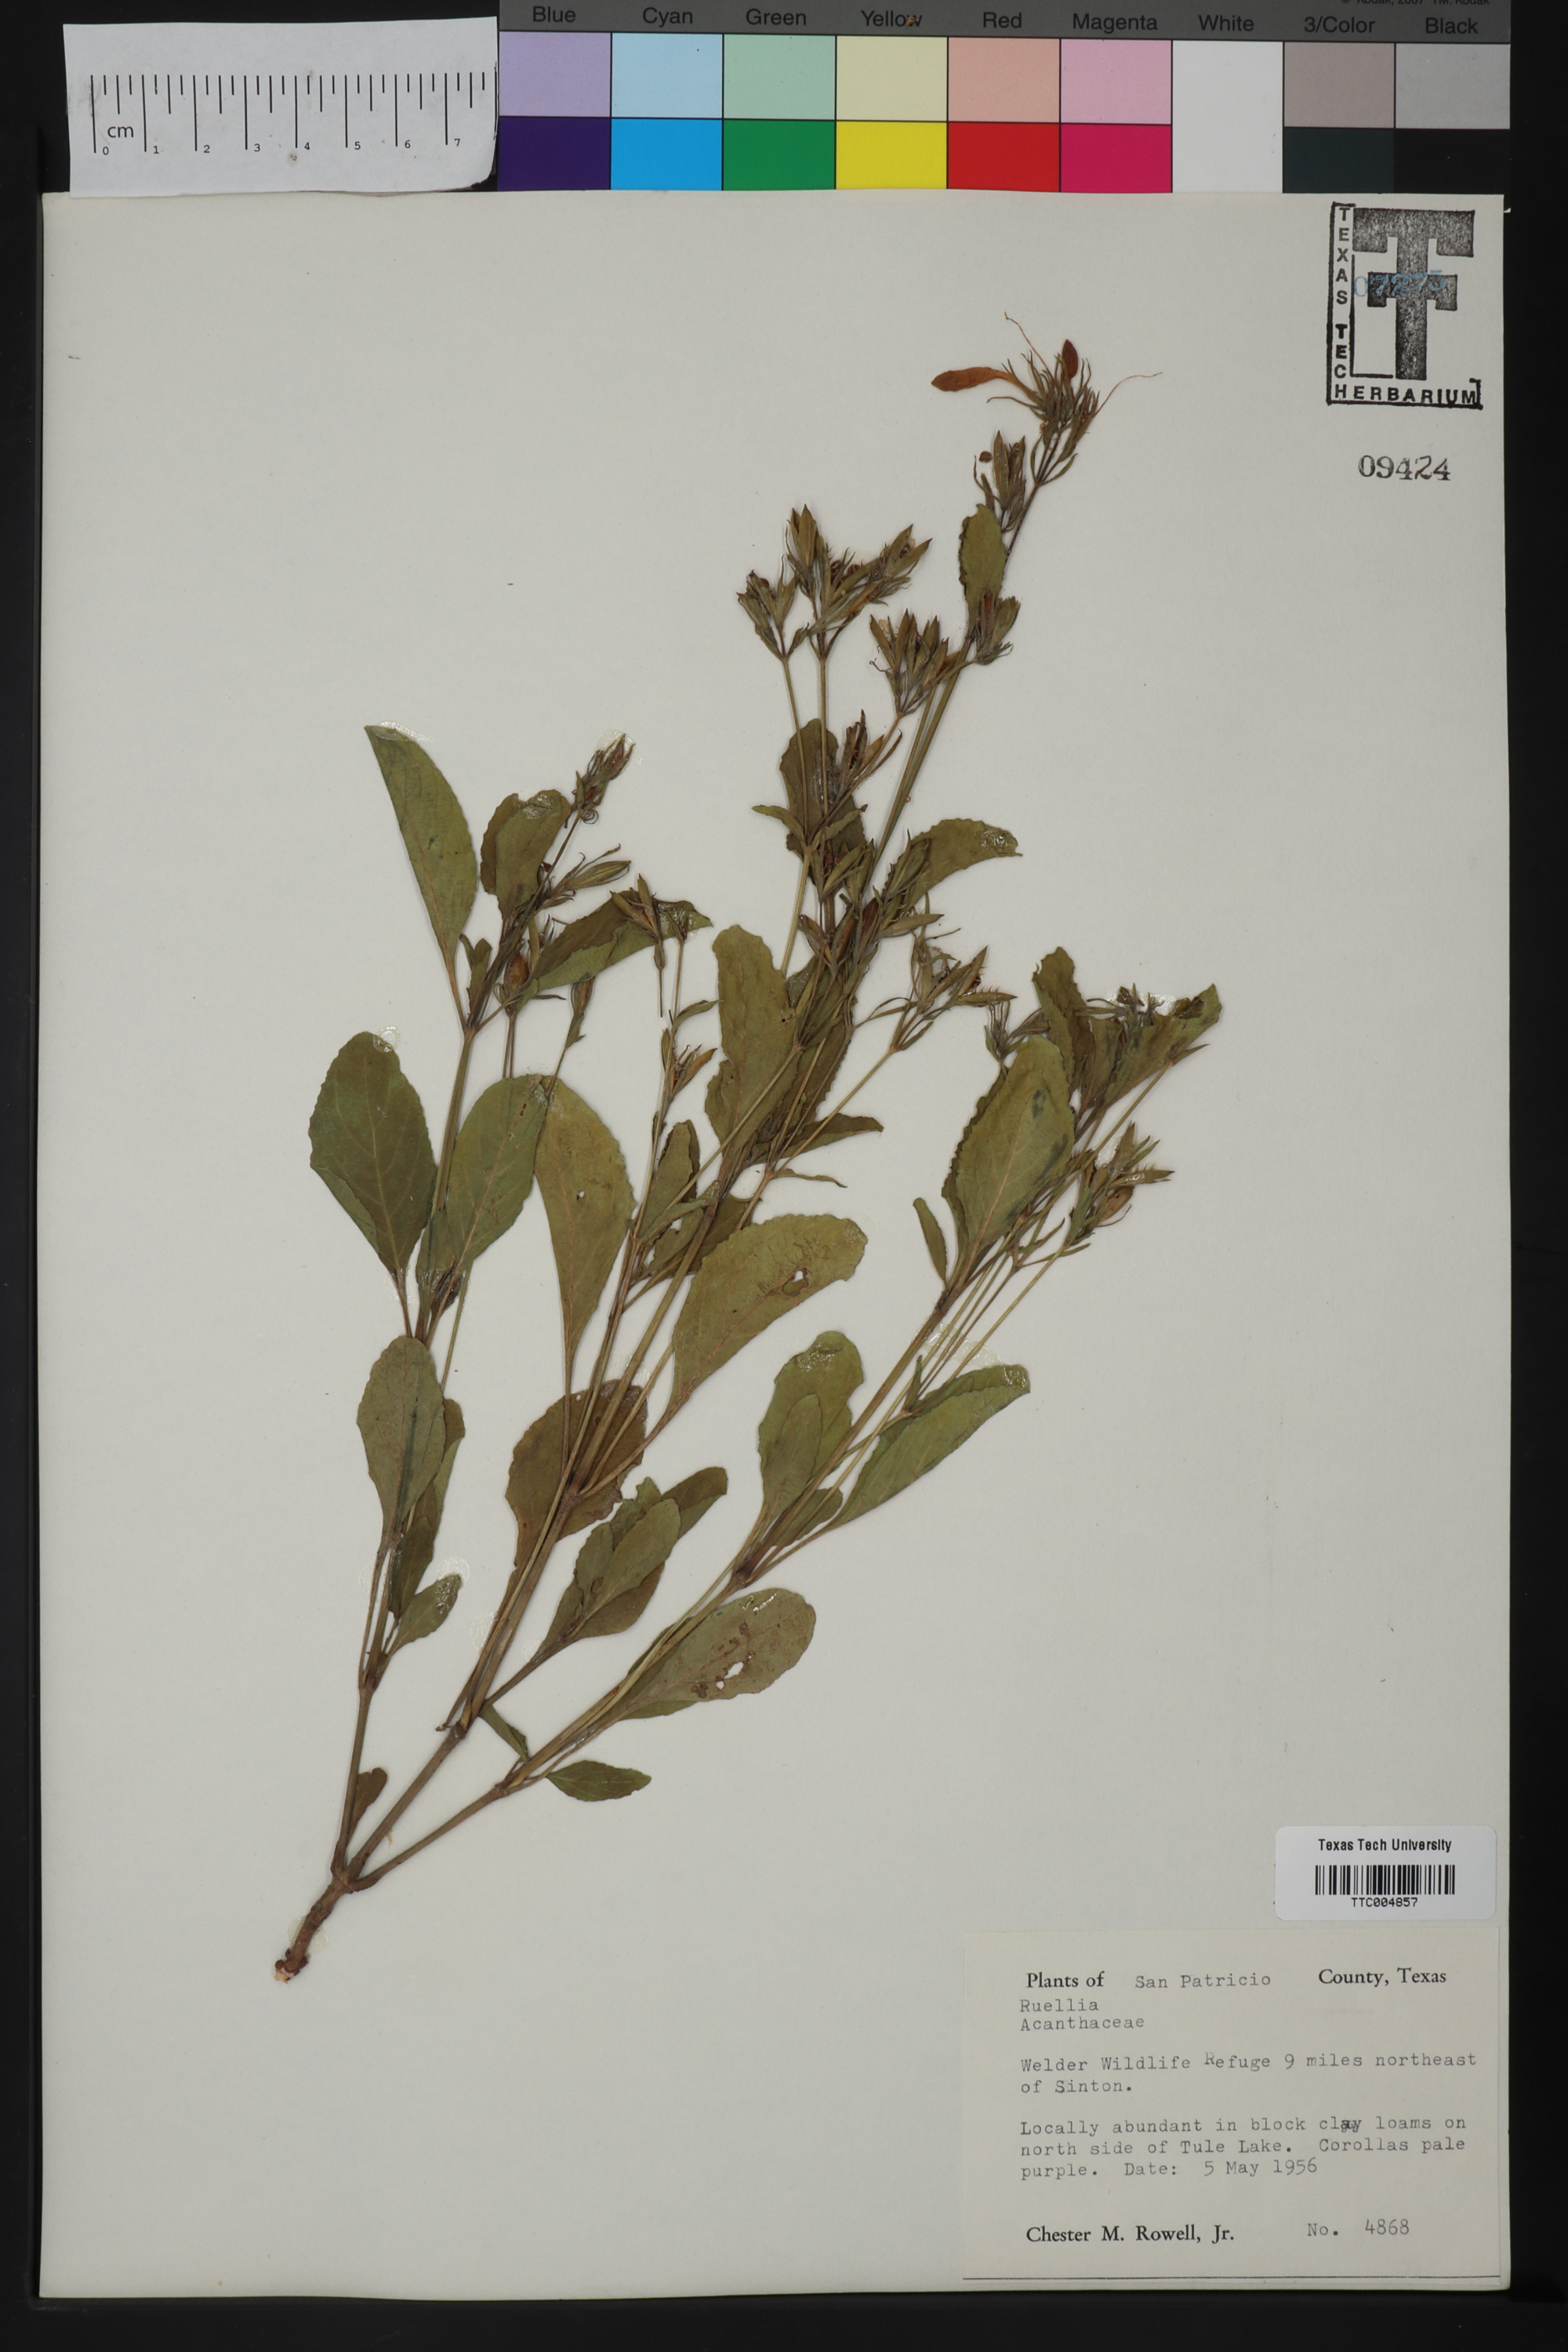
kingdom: Plantae
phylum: Tracheophyta
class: Magnoliopsida
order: Lamiales
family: Acanthaceae
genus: Ruellia
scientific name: Ruellia
